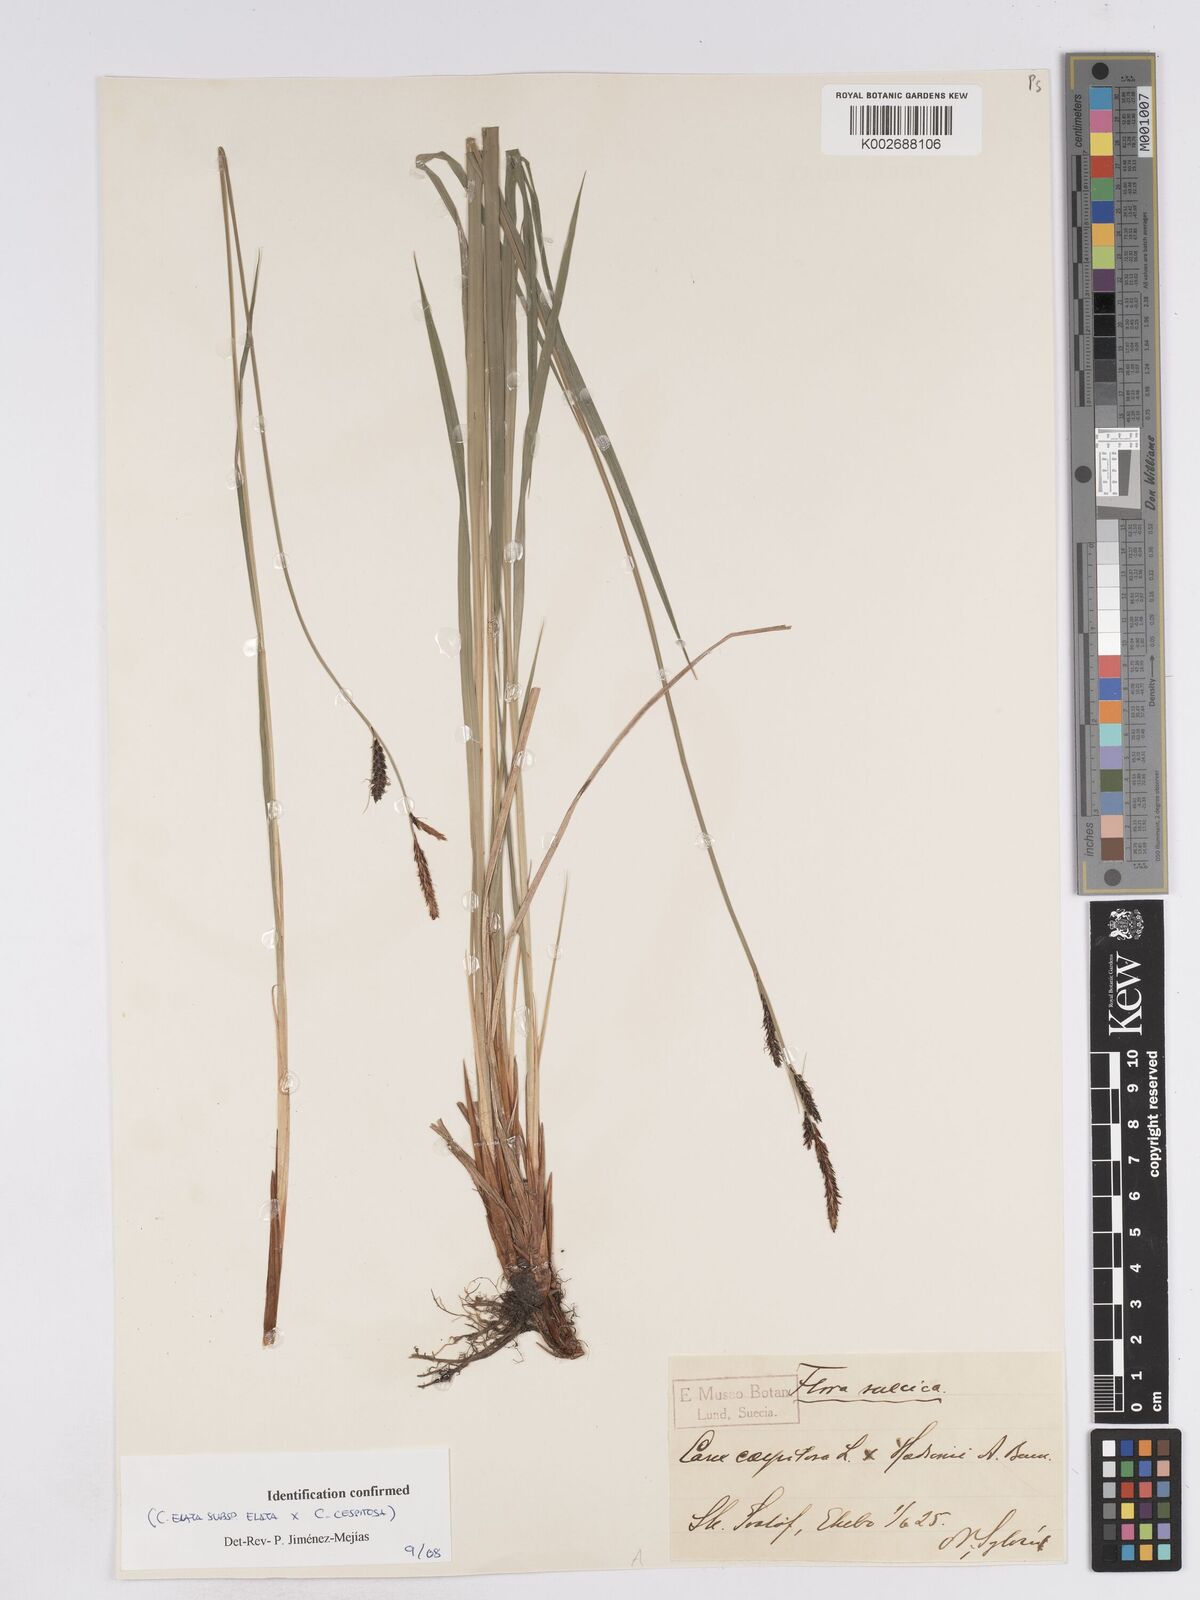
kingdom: Plantae
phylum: Tracheophyta
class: Liliopsida
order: Poales
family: Cyperaceae
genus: Carex
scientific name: Carex
